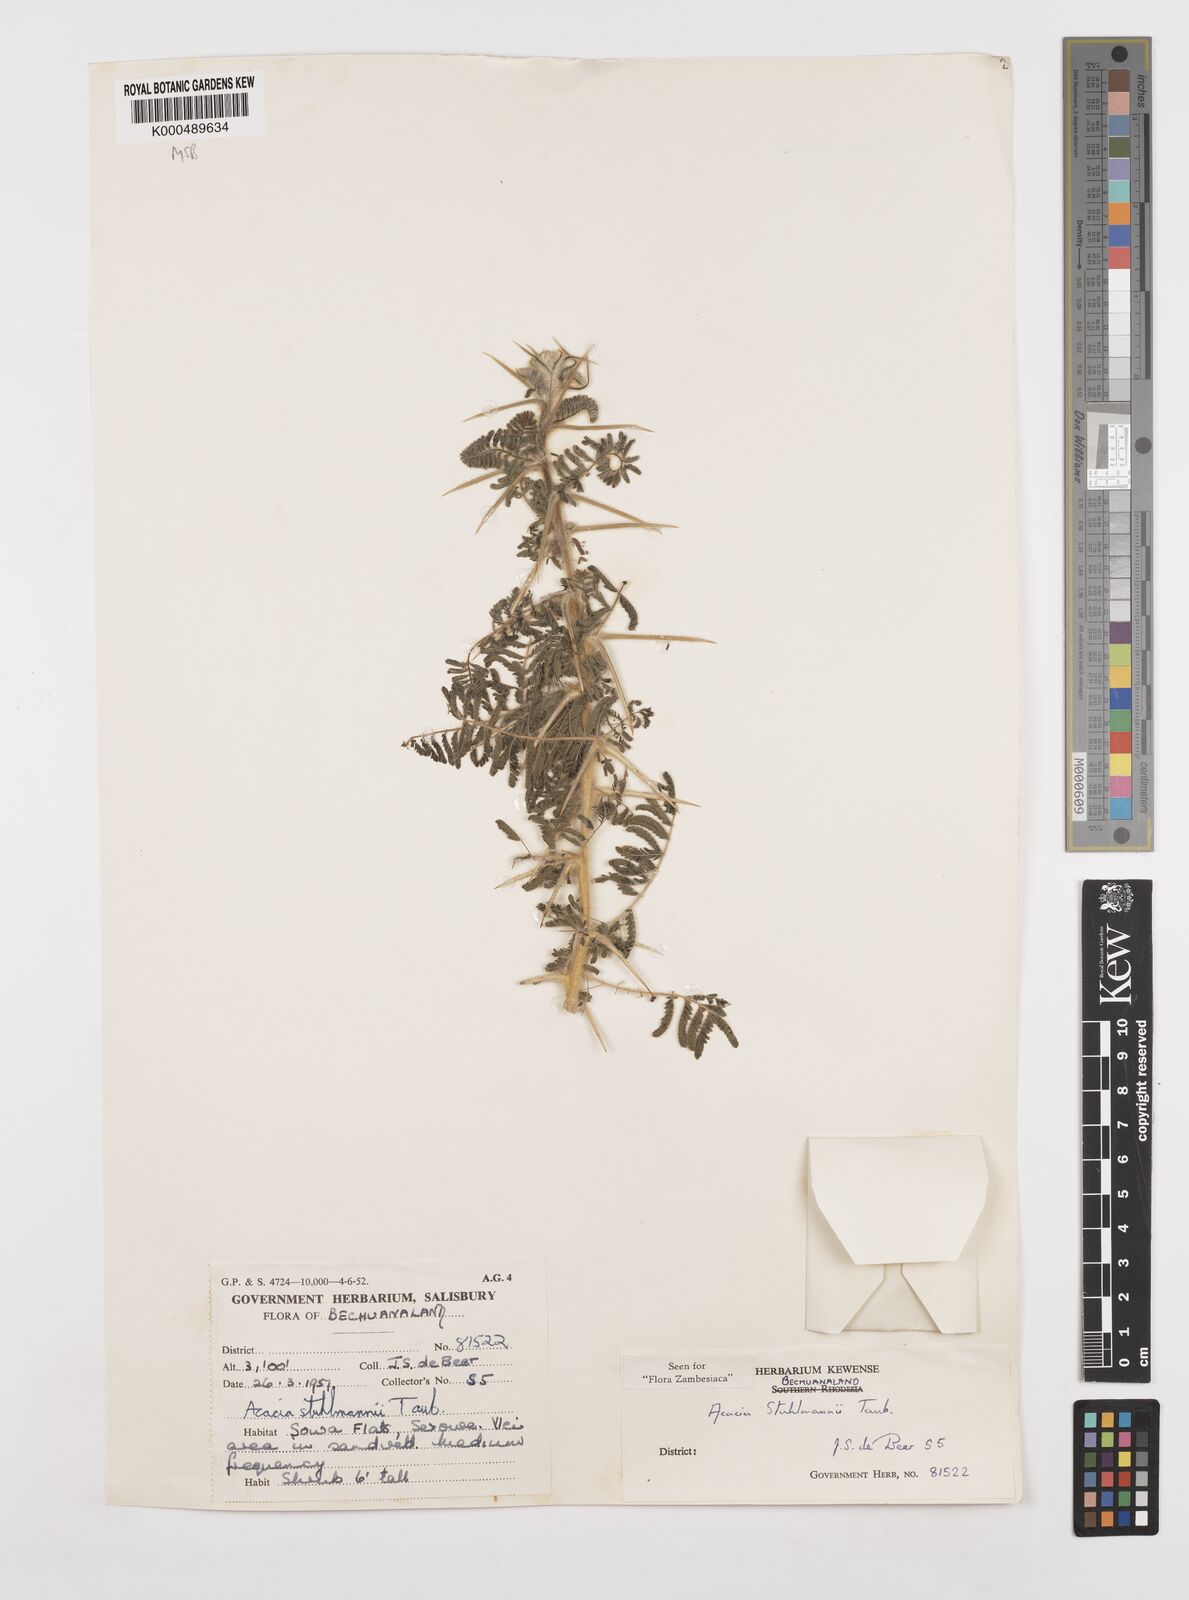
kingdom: Plantae
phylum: Tracheophyta
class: Magnoliopsida
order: Fabales
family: Fabaceae
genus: Vachellia
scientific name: Vachellia stuhlmannii
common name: Vlei thorn
